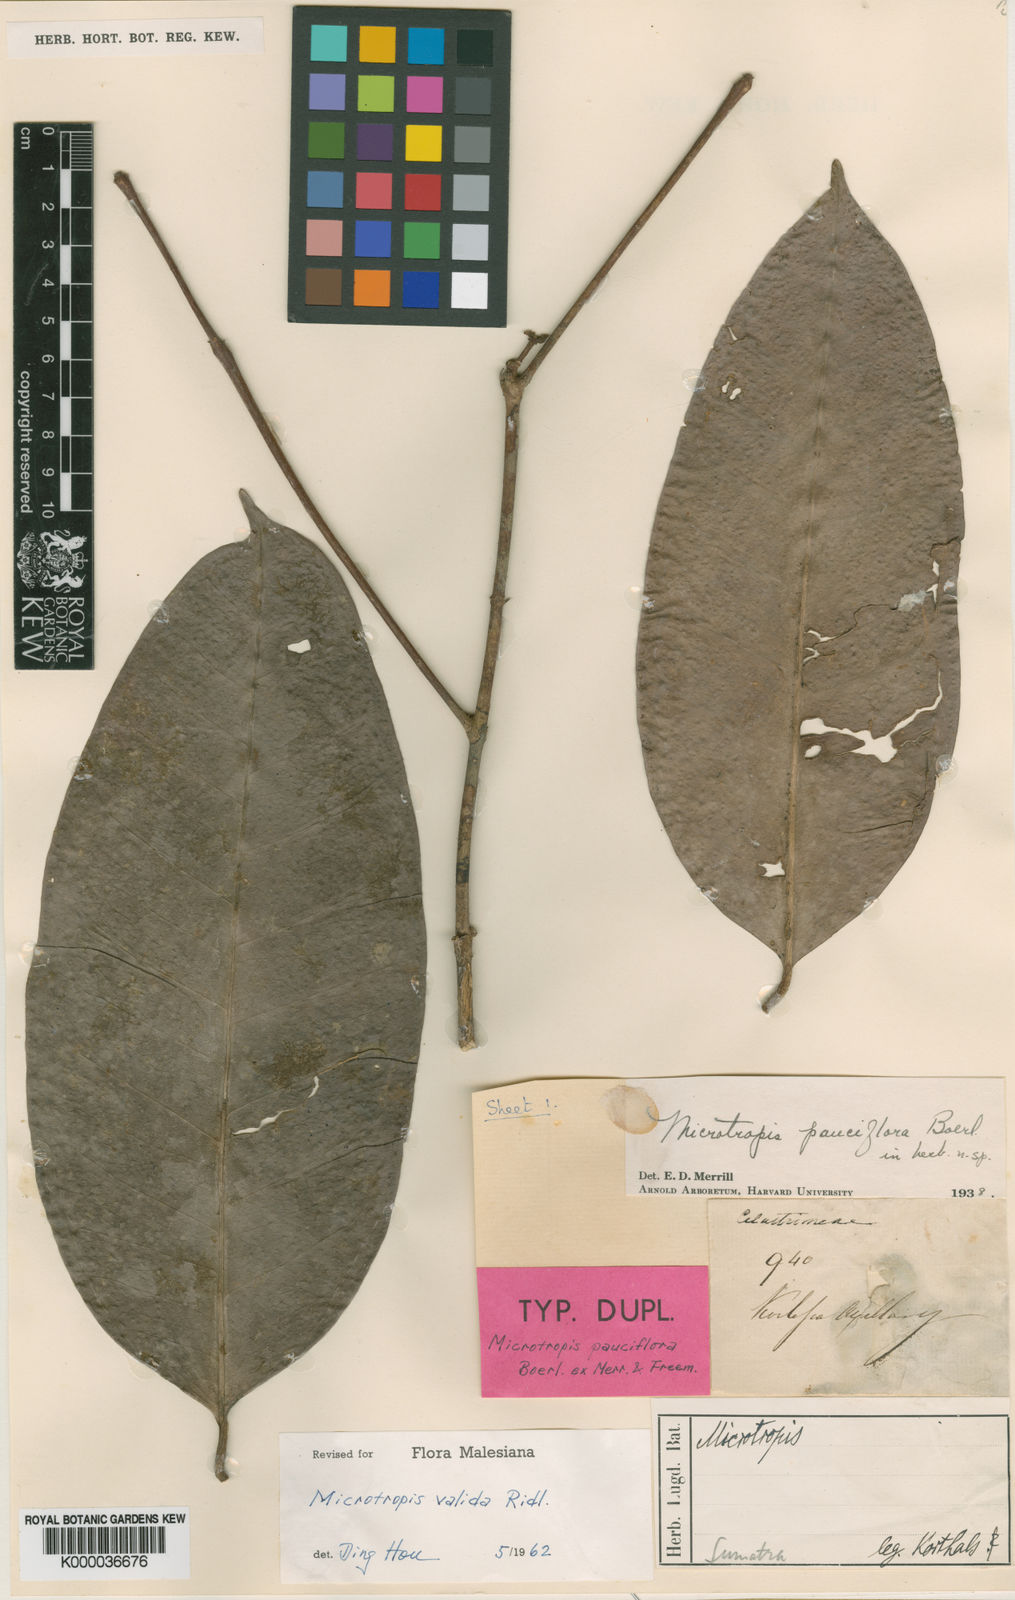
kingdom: Plantae
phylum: Tracheophyta
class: Magnoliopsida
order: Celastrales
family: Celastraceae
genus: Microtropis
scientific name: Microtropis valida
